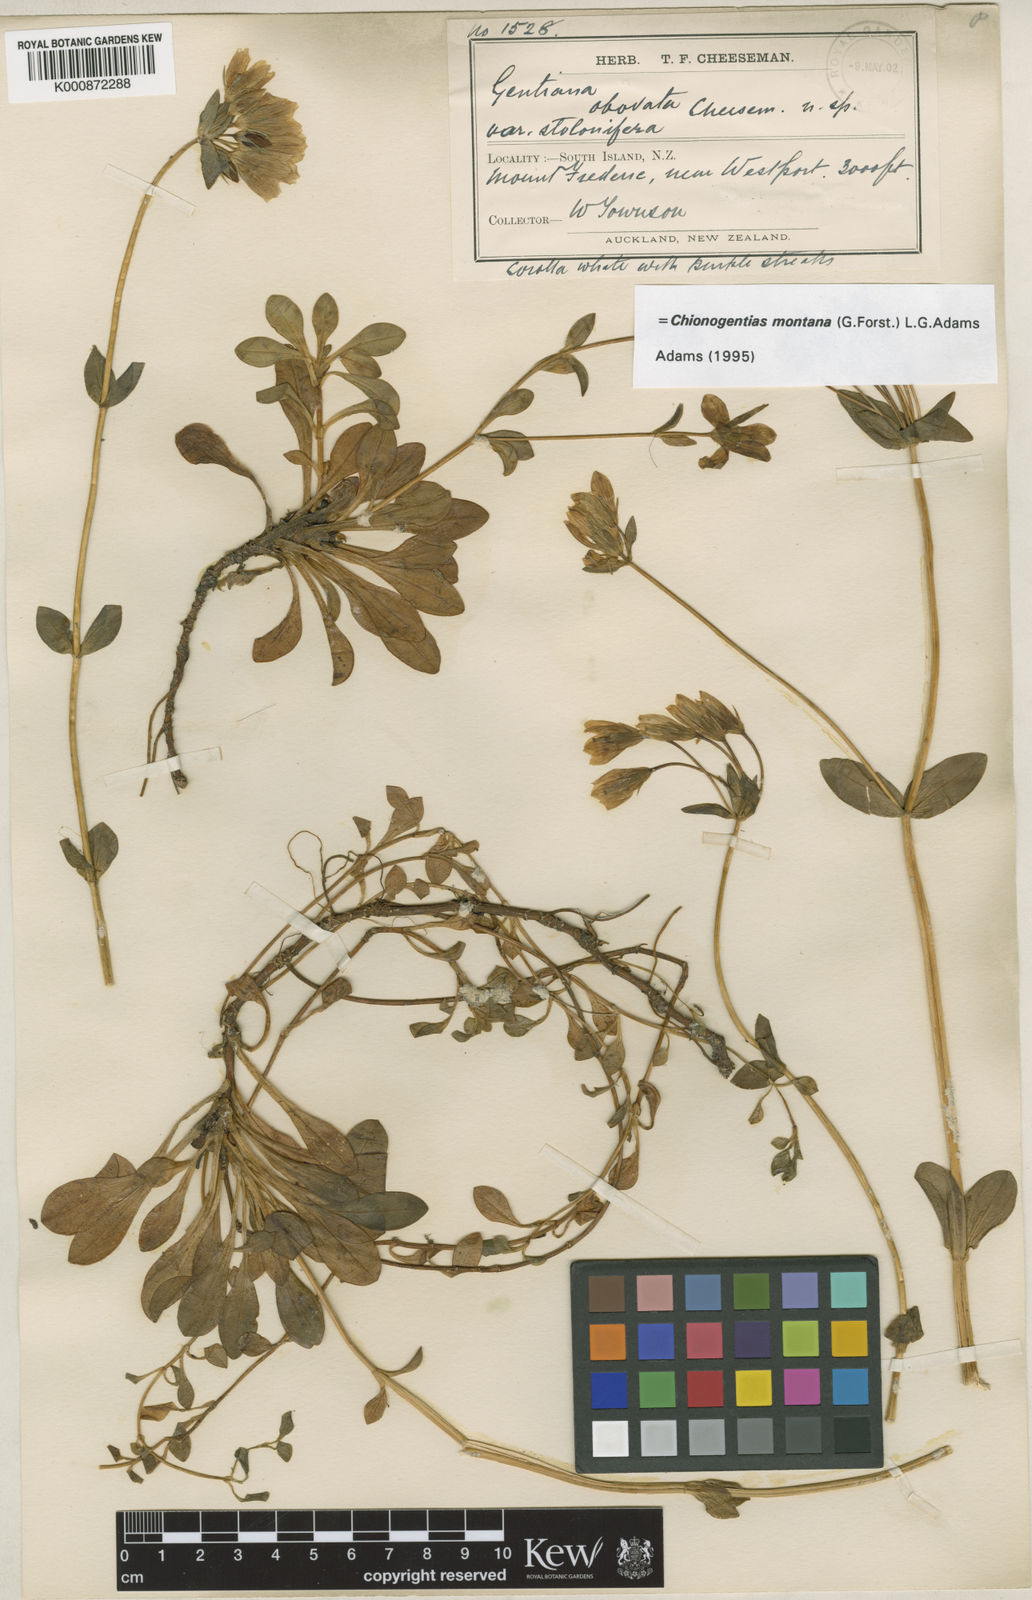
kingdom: Plantae
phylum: Tracheophyta
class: Magnoliopsida
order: Gentianales
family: Gentianaceae
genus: Gentianella
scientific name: Gentianella montana
